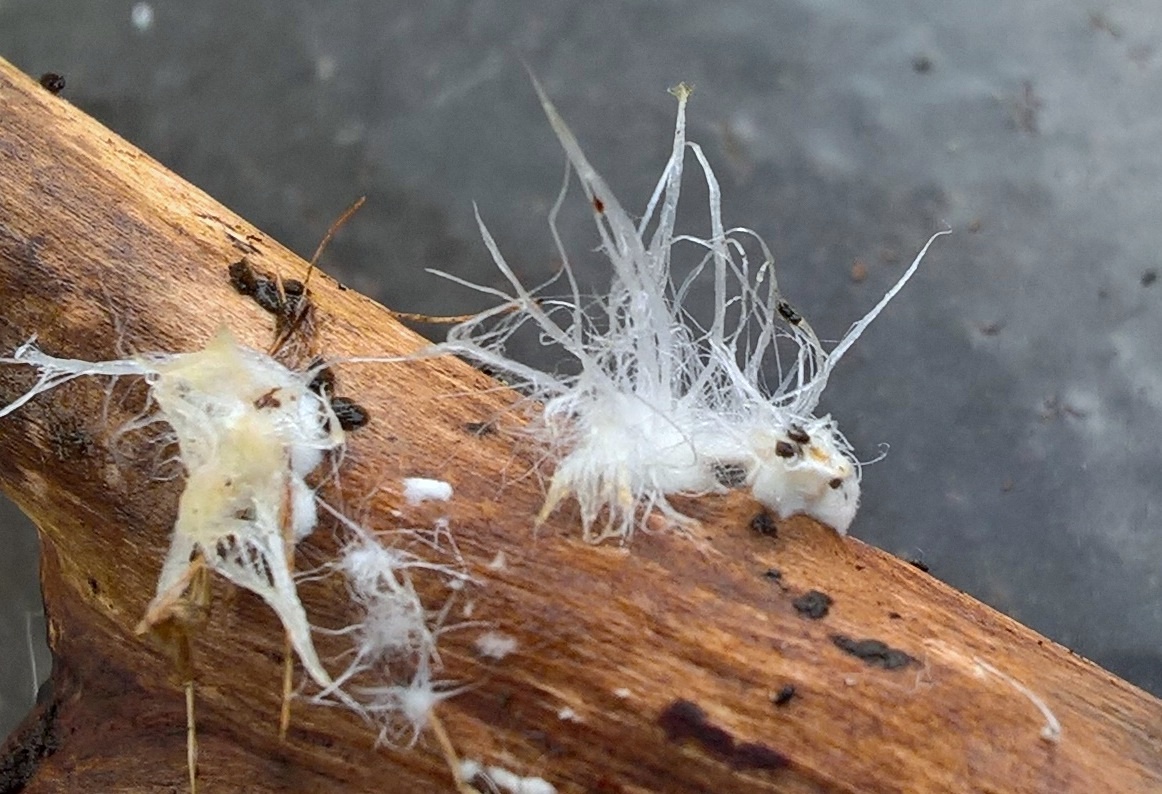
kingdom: Fungi
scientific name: Fungi
